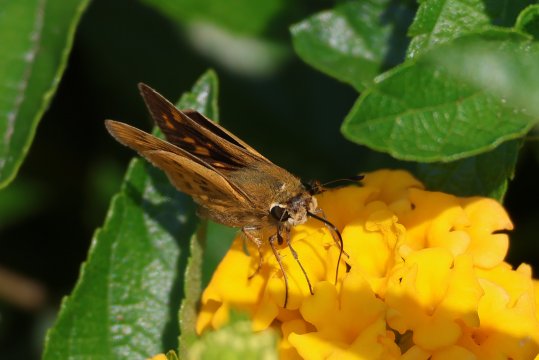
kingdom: Animalia
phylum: Arthropoda
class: Insecta
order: Lepidoptera
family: Hesperiidae
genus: Hylephila
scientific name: Hylephila phyleus
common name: Fiery Skipper
